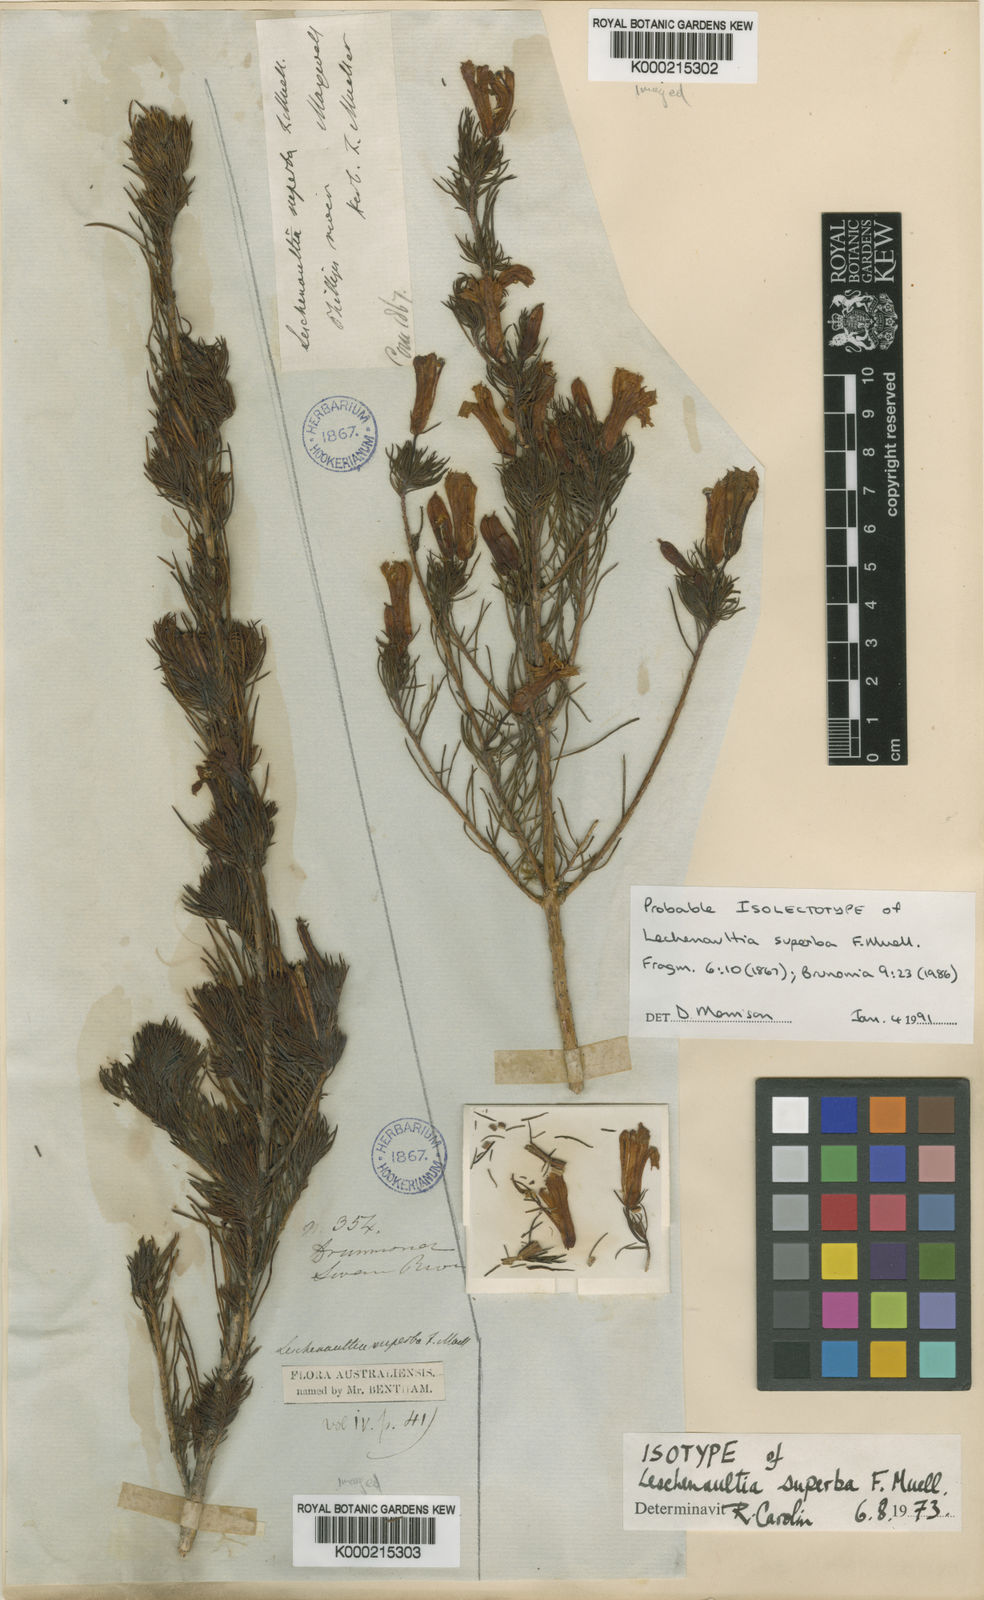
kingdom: Plantae
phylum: Tracheophyta
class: Magnoliopsida
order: Asterales
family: Goodeniaceae
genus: Leschenaultia
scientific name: Leschenaultia superba
